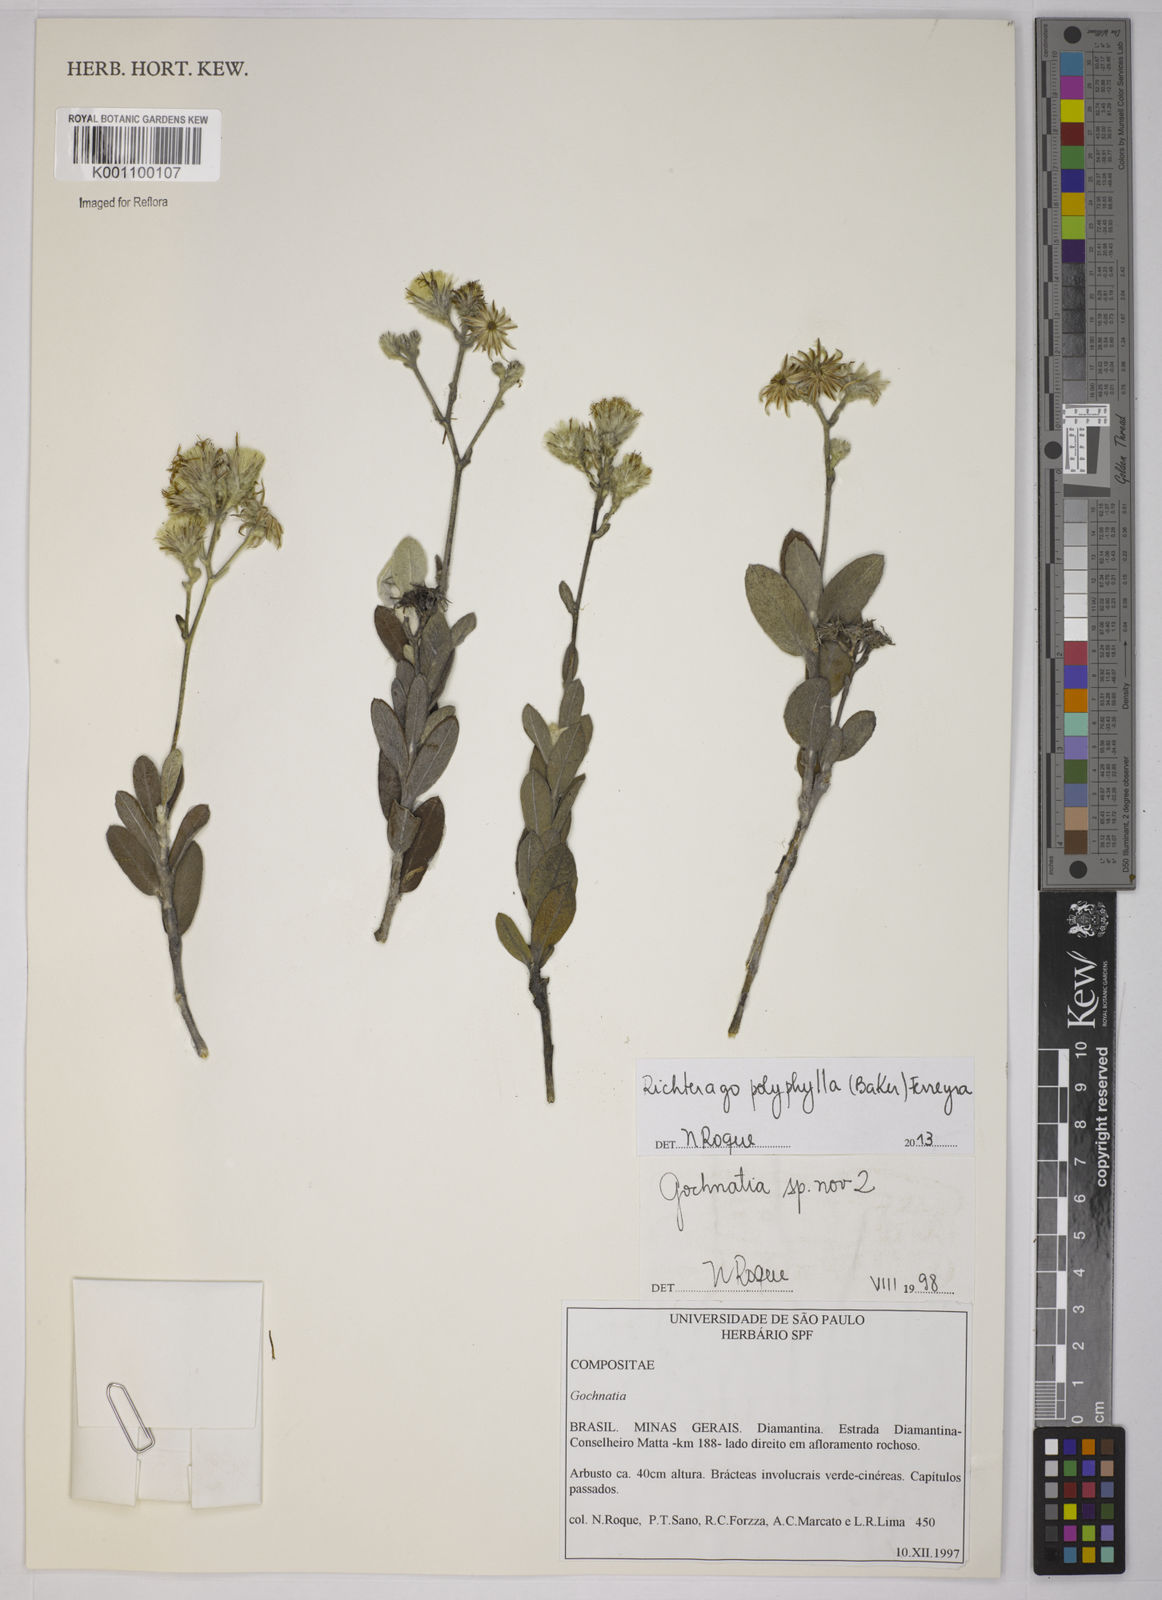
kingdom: Plantae
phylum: Tracheophyta
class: Magnoliopsida
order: Asterales
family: Asteraceae
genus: Richterago
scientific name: Richterago polyphylla
